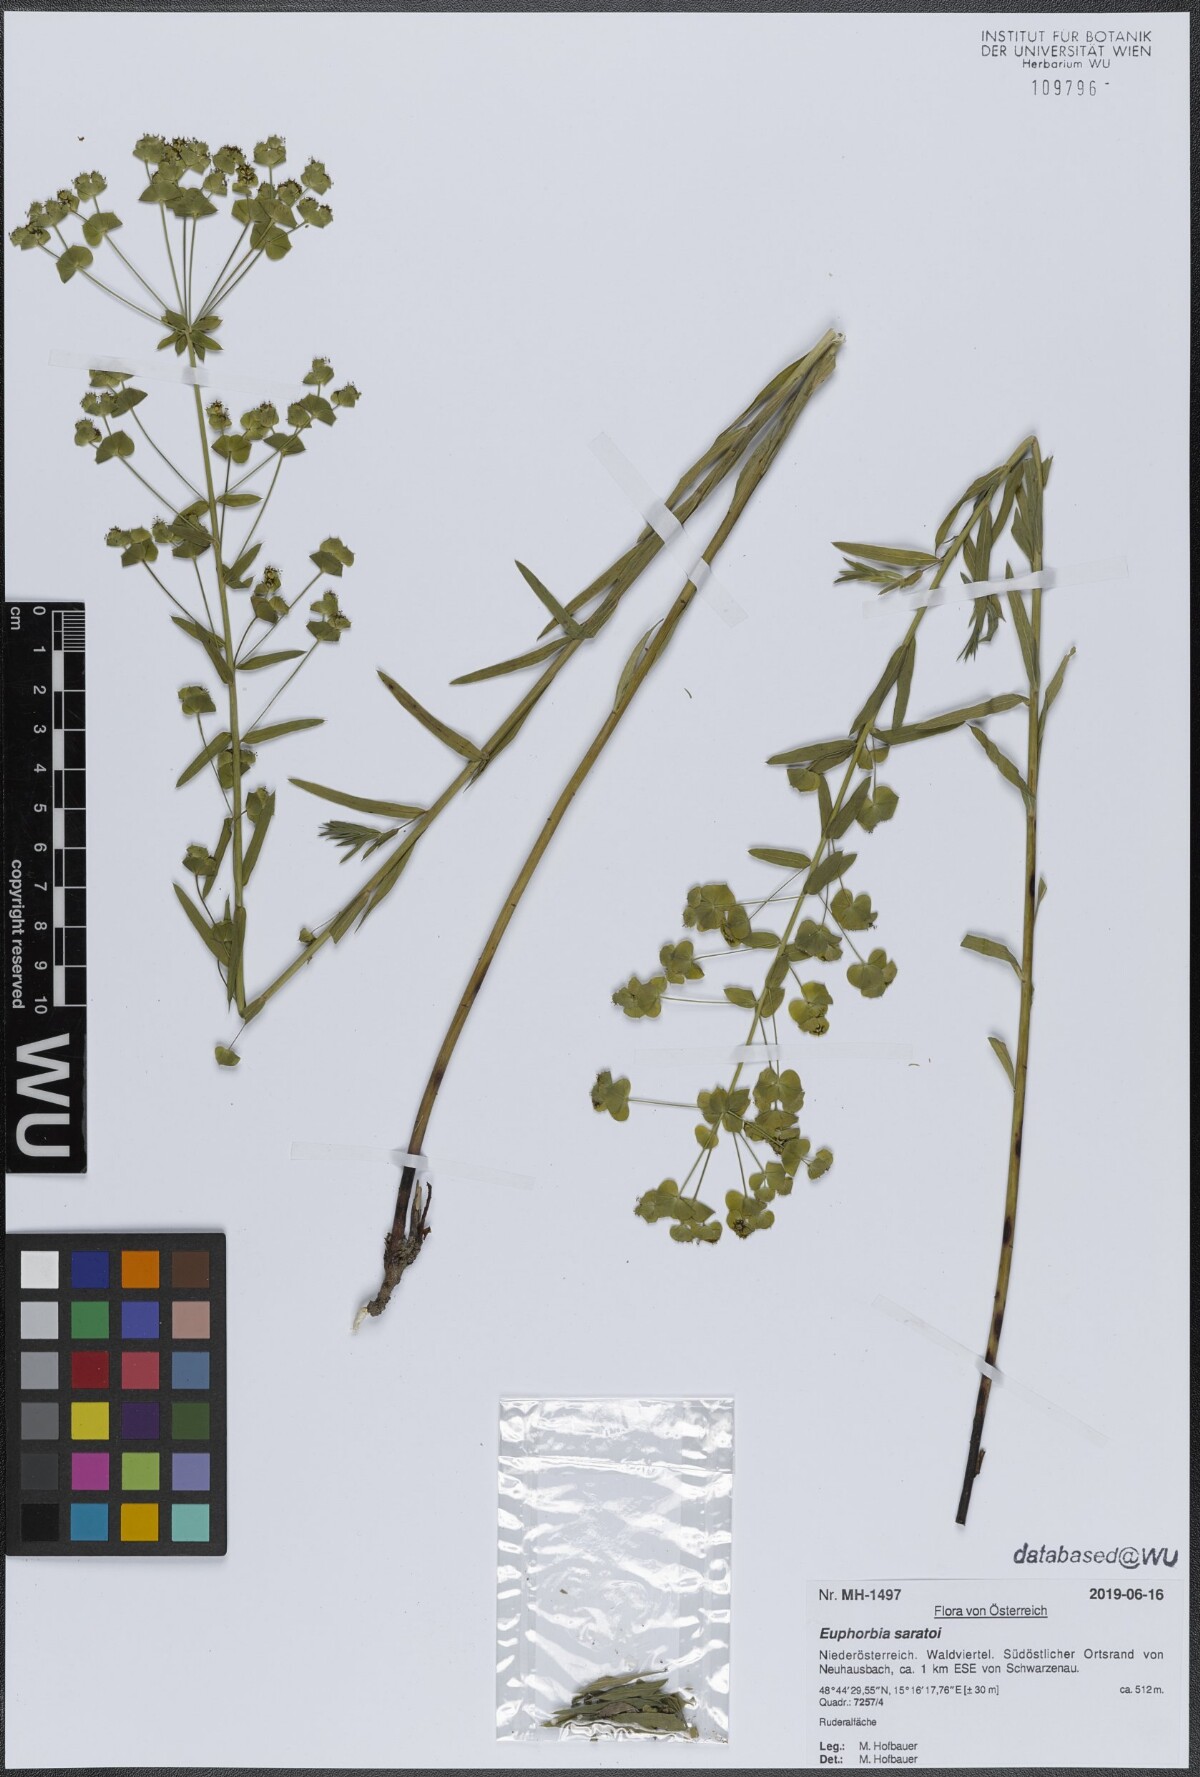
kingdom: Plantae
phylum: Tracheophyta
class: Magnoliopsida
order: Malpighiales
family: Euphorbiaceae
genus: Euphorbia
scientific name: Euphorbia saratoi
